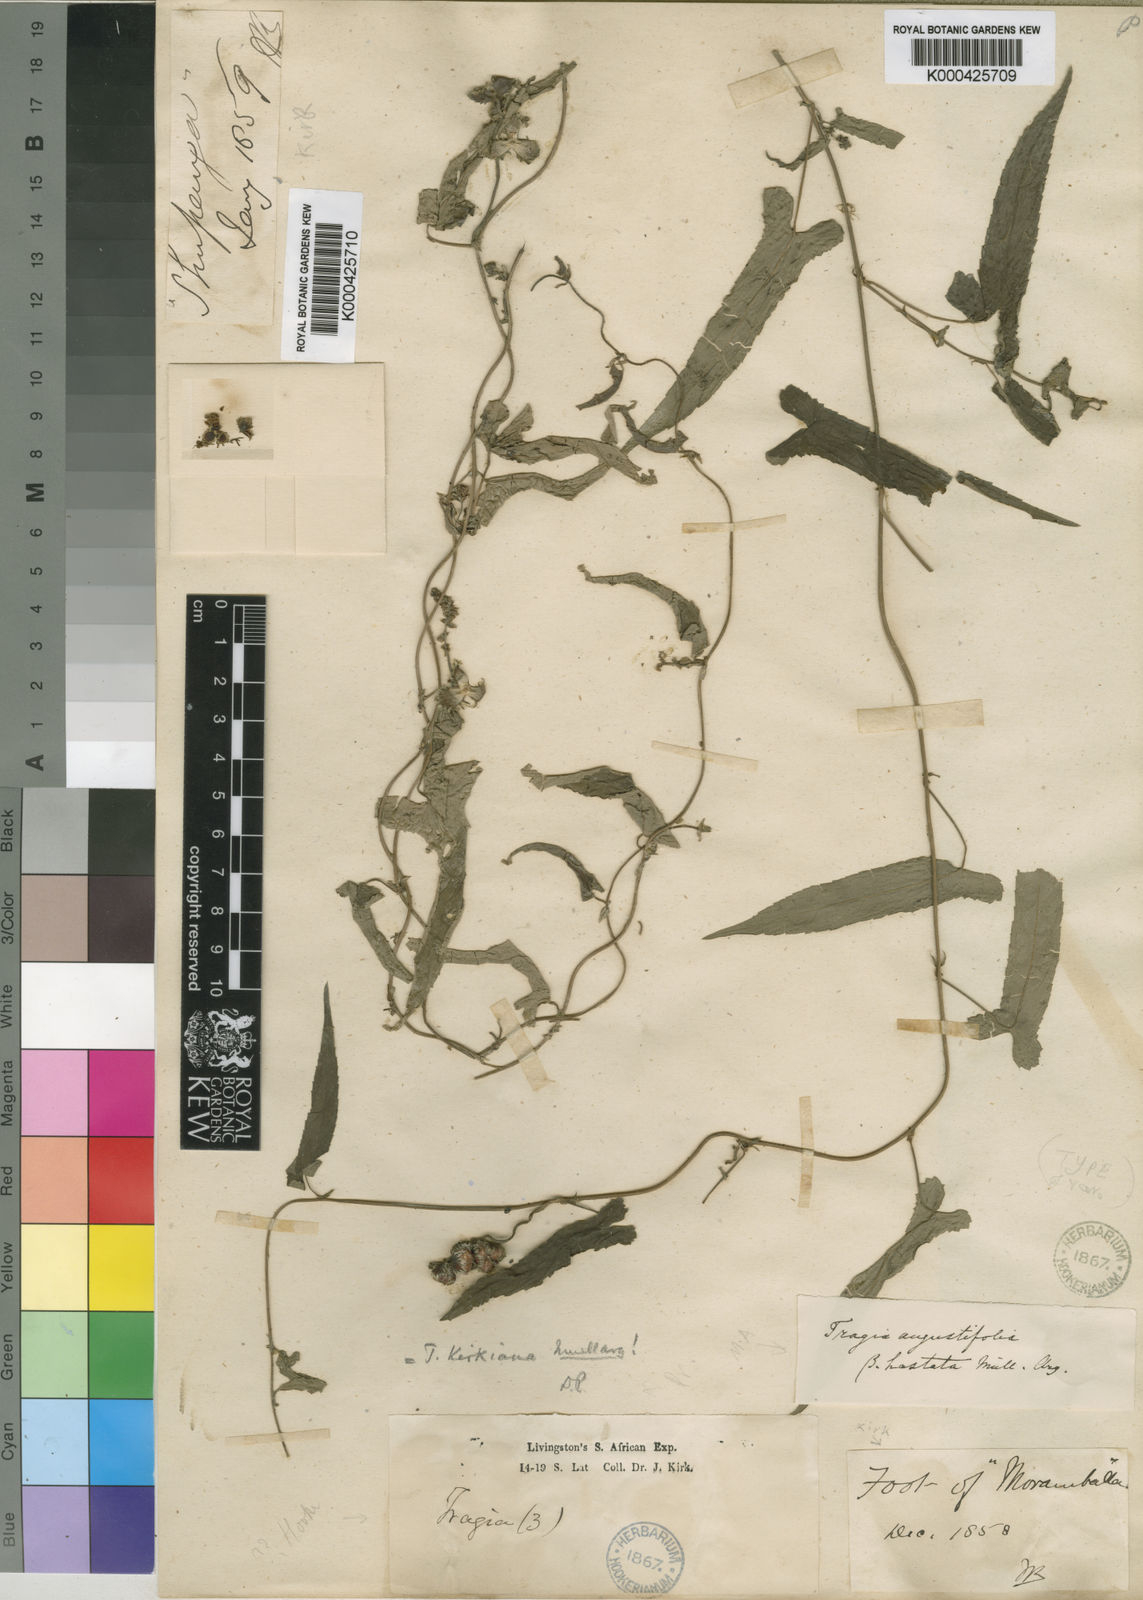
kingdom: Plantae
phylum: Tracheophyta
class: Magnoliopsida
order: Malpighiales
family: Euphorbiaceae
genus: Tragia
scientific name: Tragia
